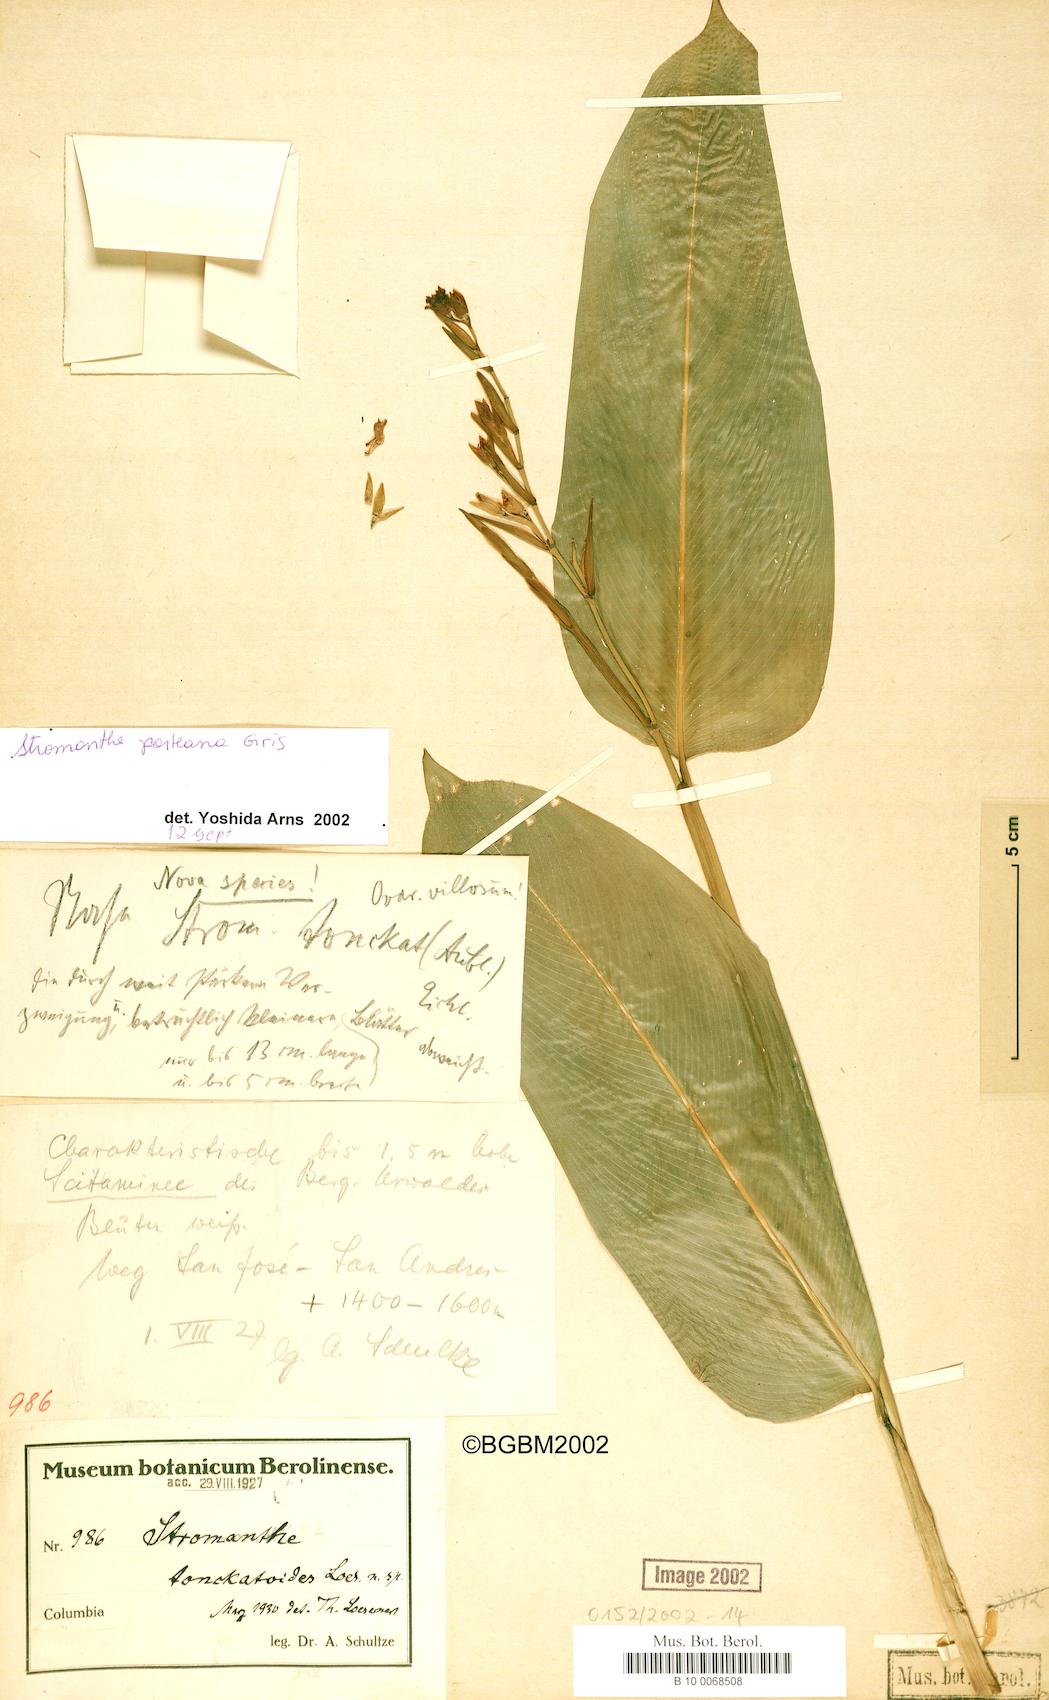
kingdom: Plantae
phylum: Tracheophyta
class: Liliopsida
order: Zingiberales
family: Marantaceae
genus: Stromanthe
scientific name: Stromanthe porteana
